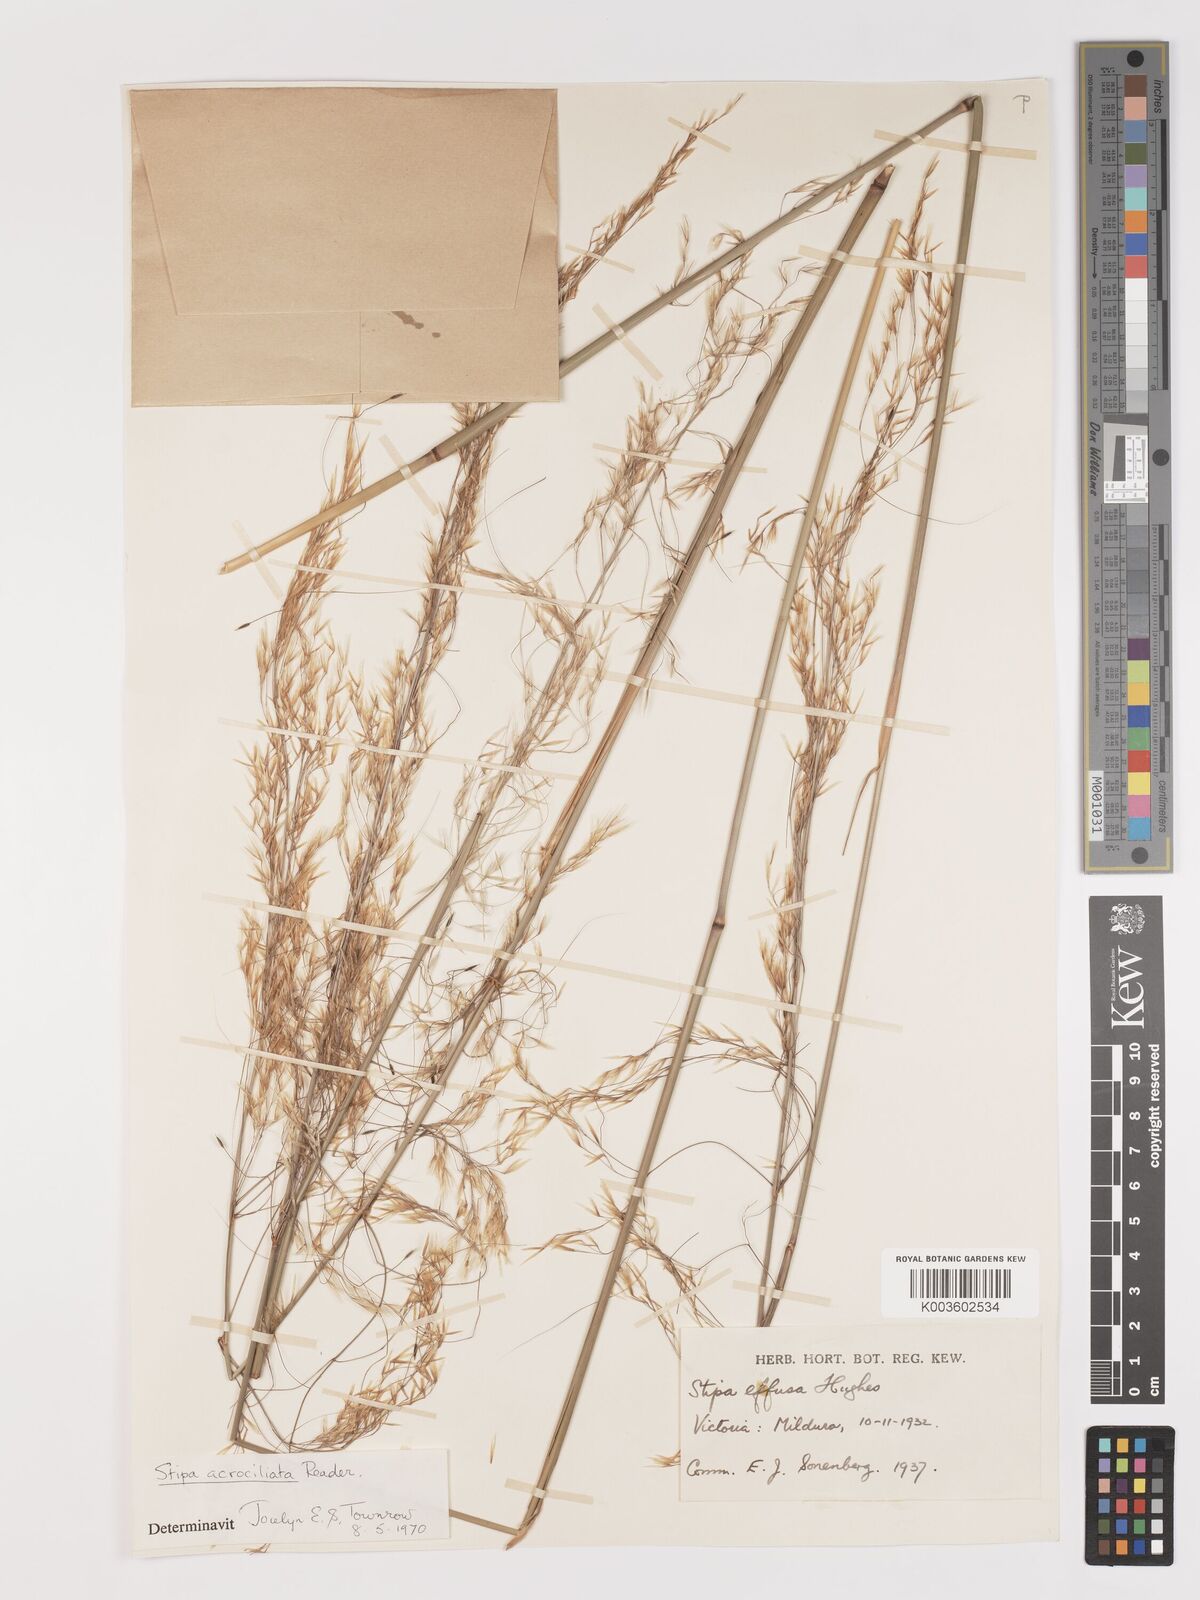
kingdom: Plantae
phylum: Tracheophyta
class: Liliopsida
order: Poales
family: Poaceae
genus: Austrostipa
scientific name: Austrostipa acrociliata
